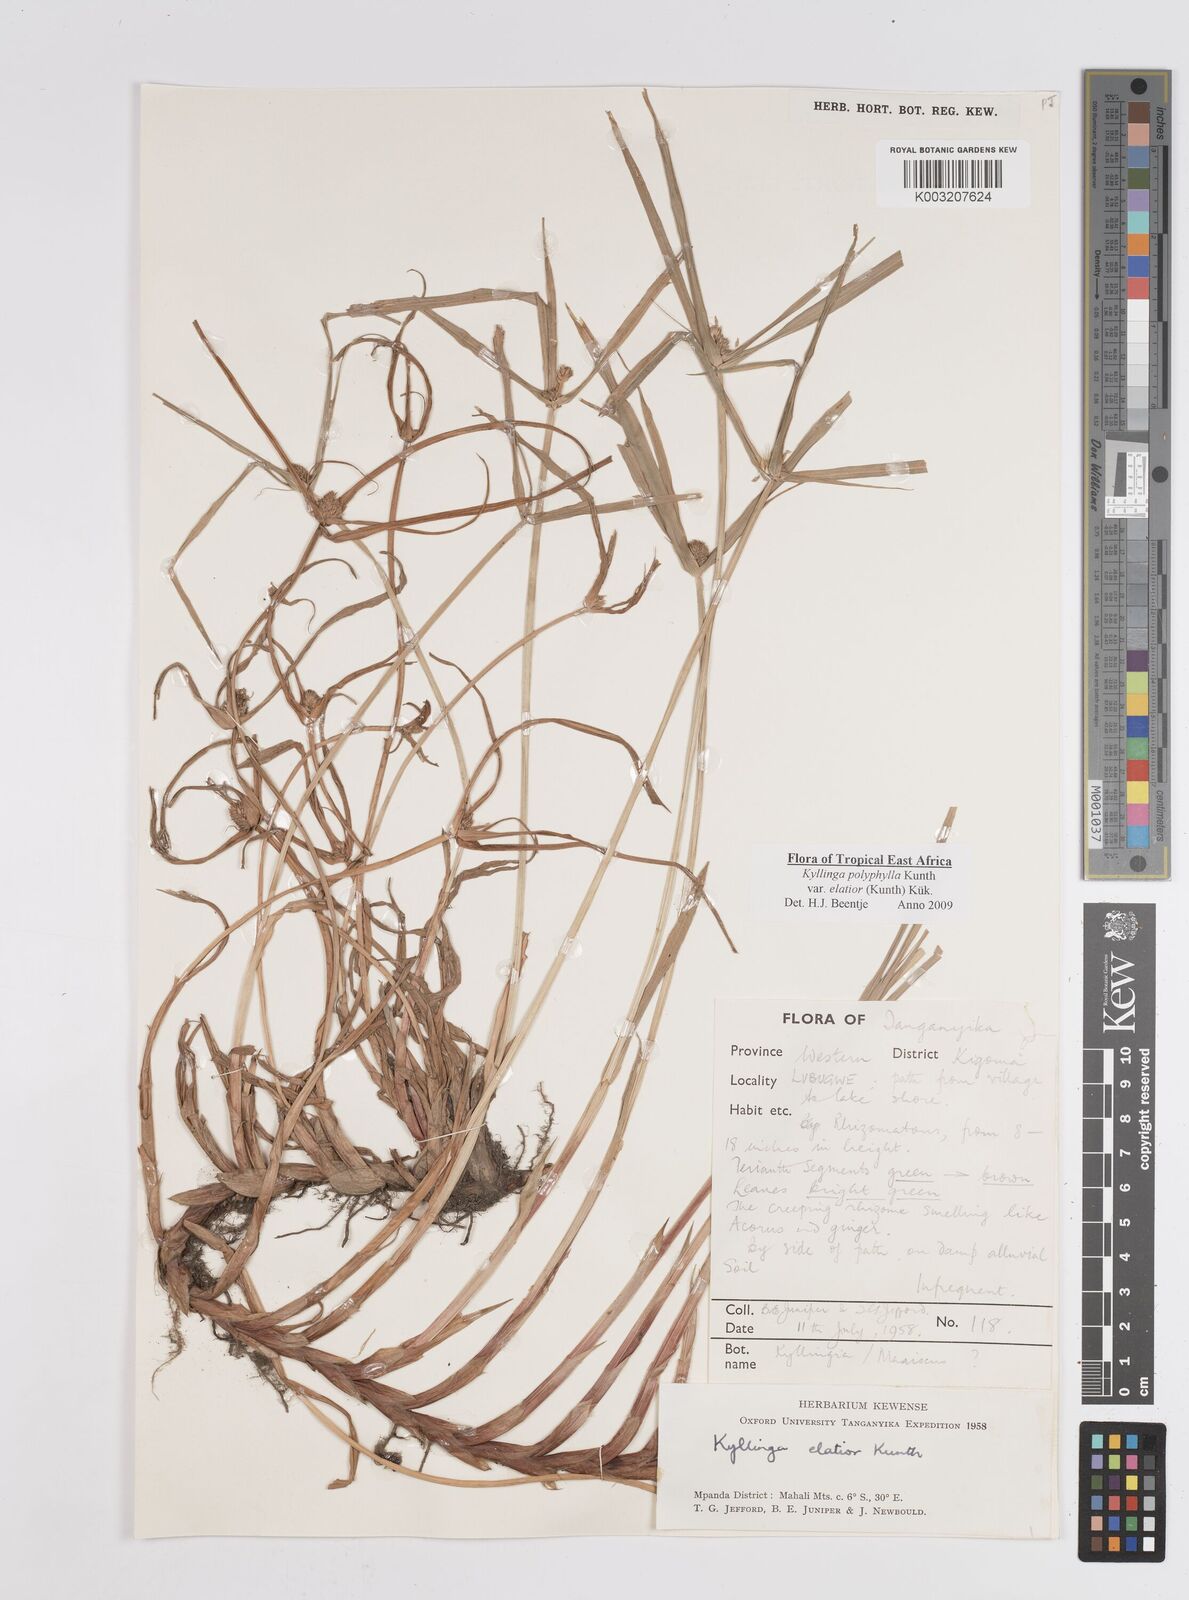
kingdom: Plantae
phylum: Tracheophyta
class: Liliopsida
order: Poales
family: Cyperaceae
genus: Cyperus
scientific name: Cyperus
